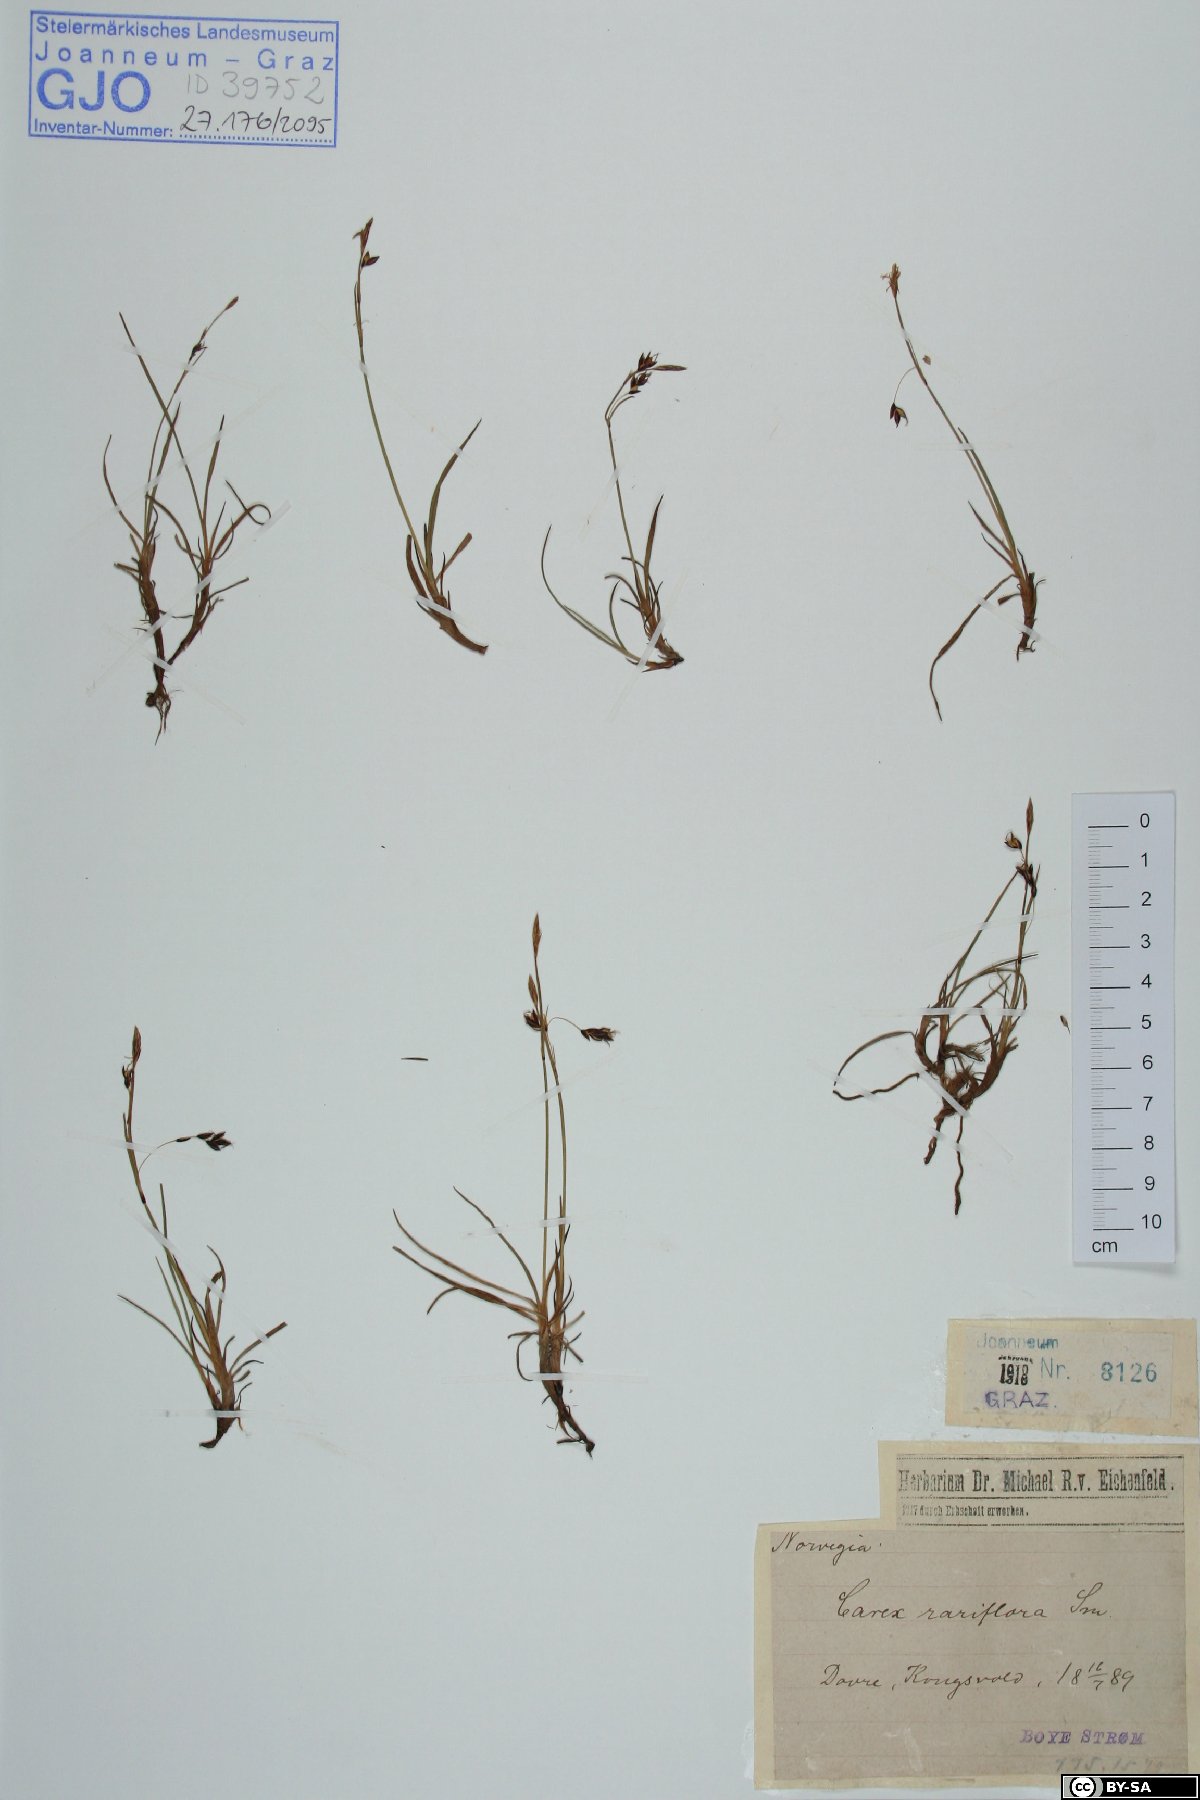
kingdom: Plantae
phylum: Tracheophyta
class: Liliopsida
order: Poales
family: Cyperaceae
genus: Carex
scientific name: Carex rariflora
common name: Loose-flowered alpine sedge
